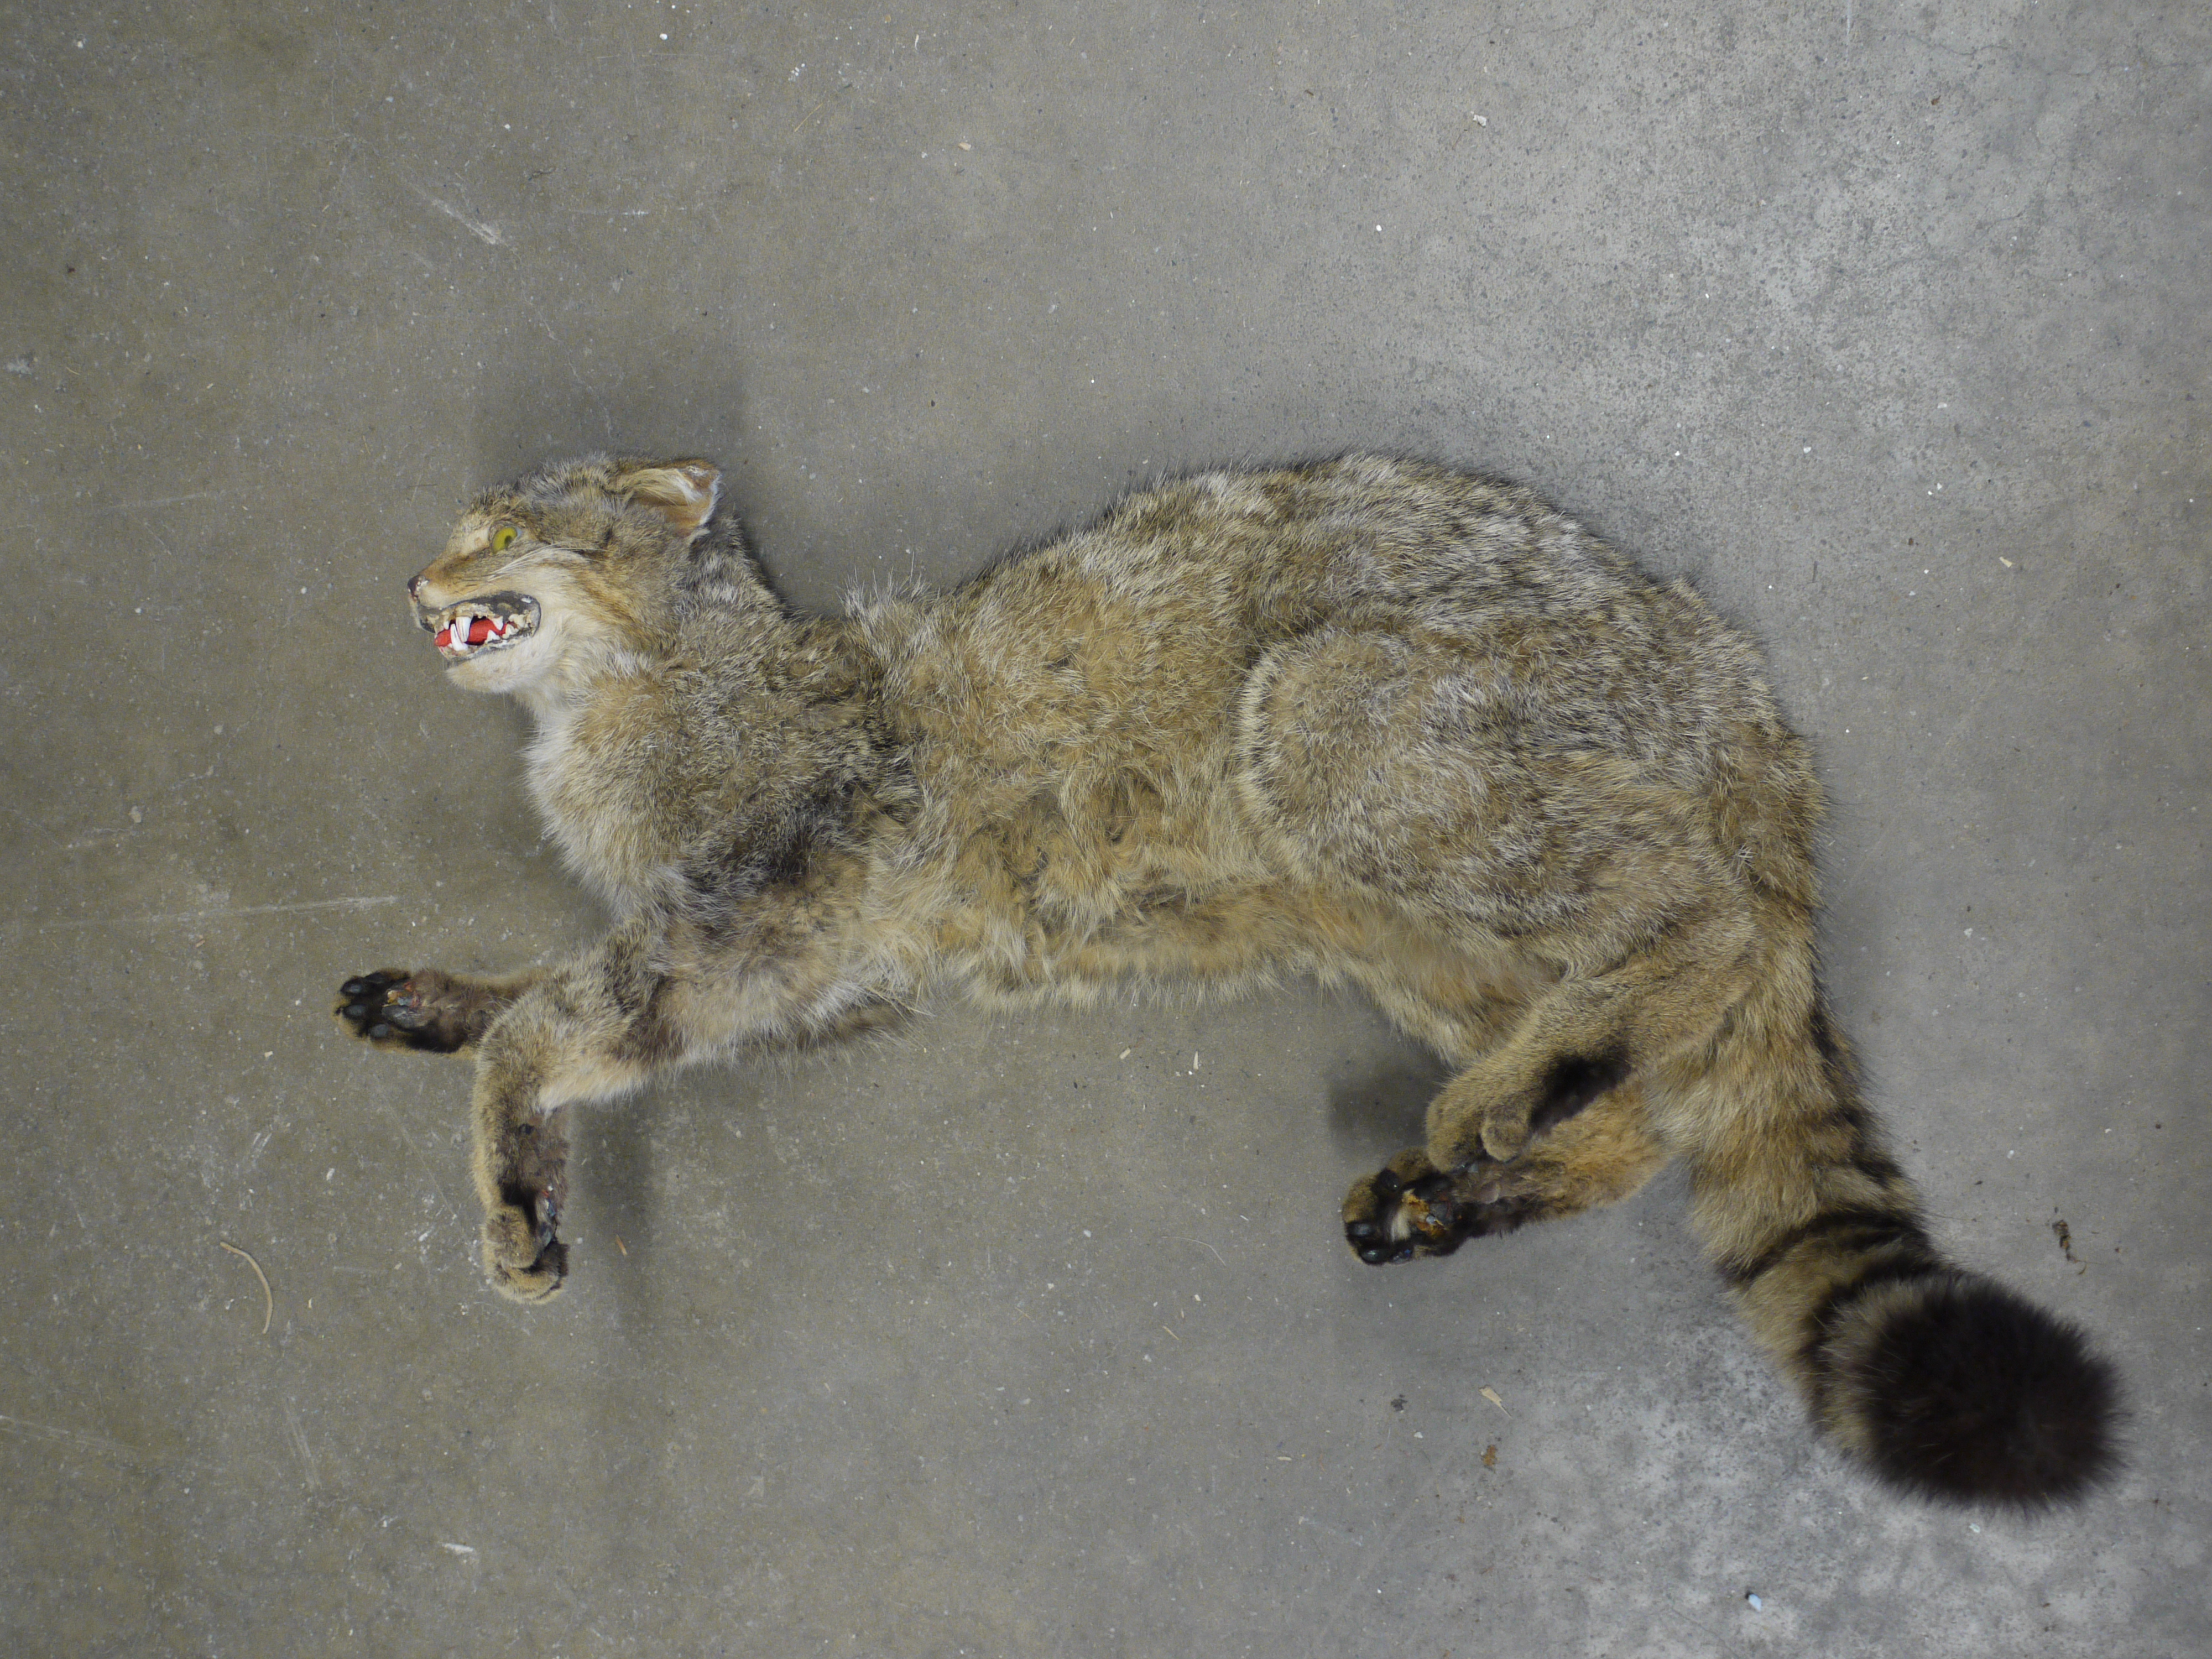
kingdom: Animalia
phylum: Chordata
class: Mammalia
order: Carnivora
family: Felidae
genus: Felis
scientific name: Felis silvestris
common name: Wildcat
